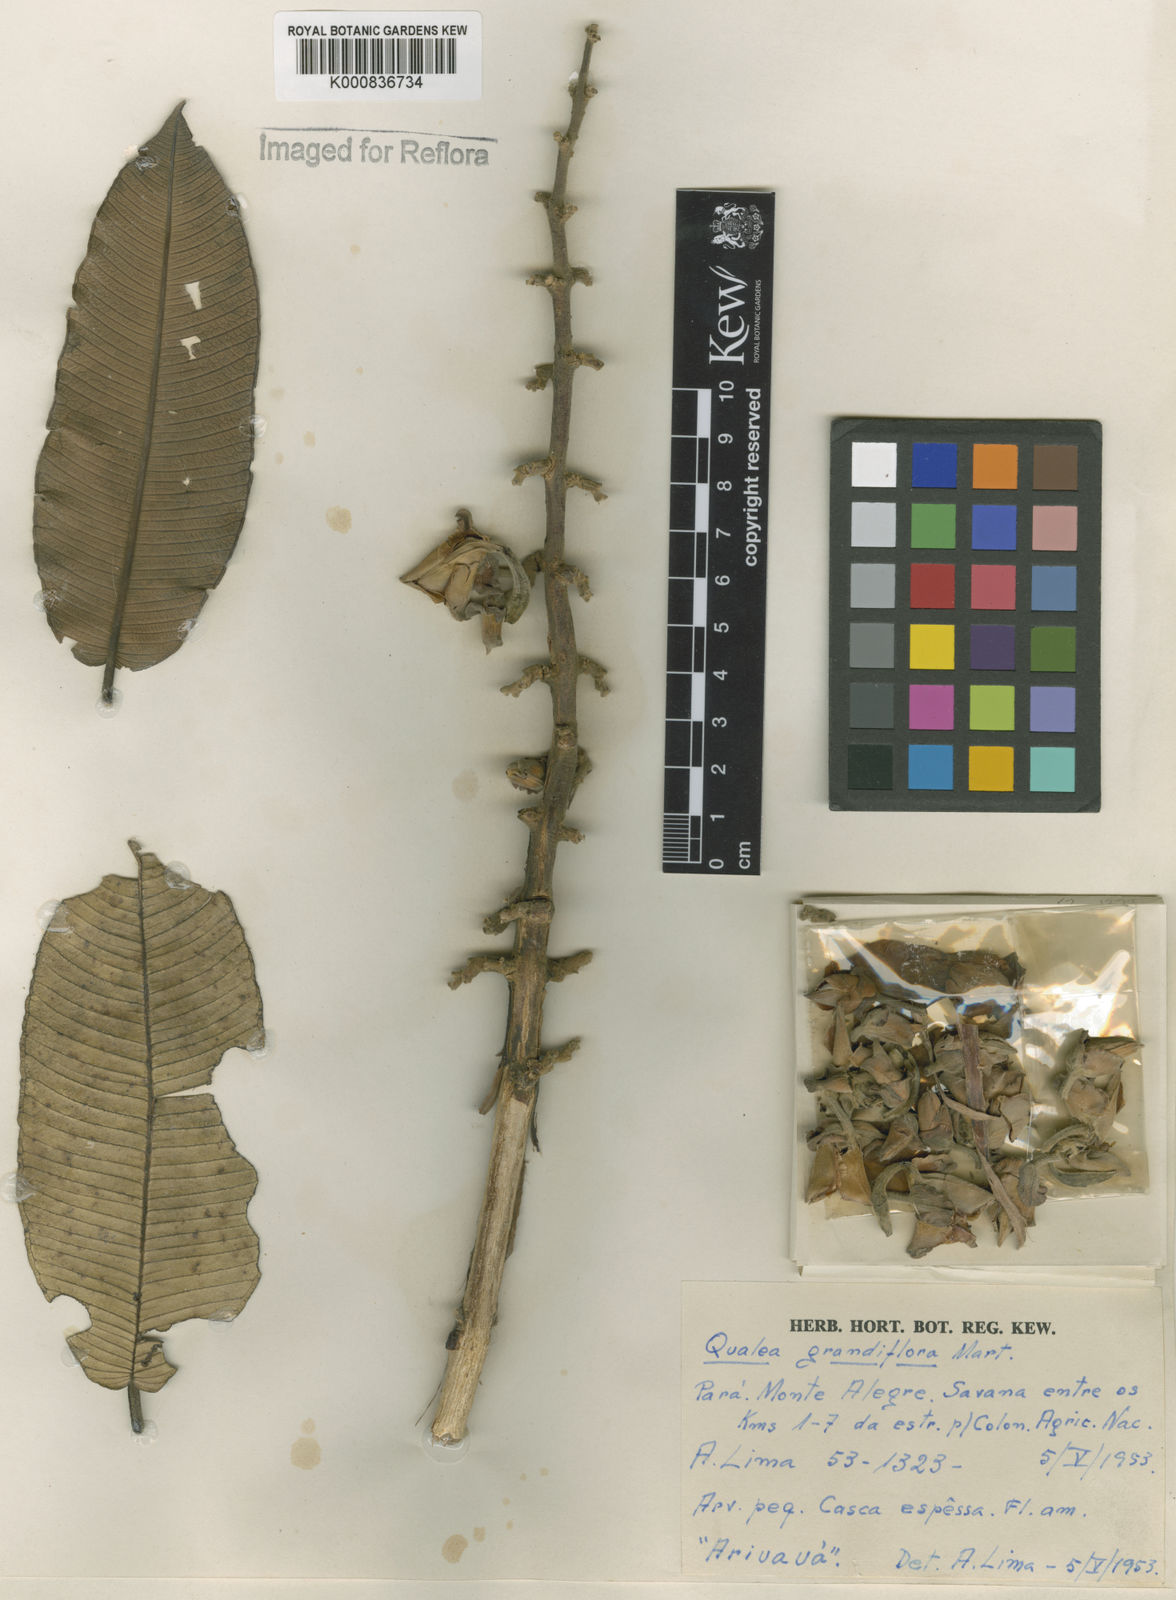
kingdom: Plantae
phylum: Tracheophyta
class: Magnoliopsida
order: Myrtales
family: Vochysiaceae
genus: Qualea
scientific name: Qualea grandiflora
